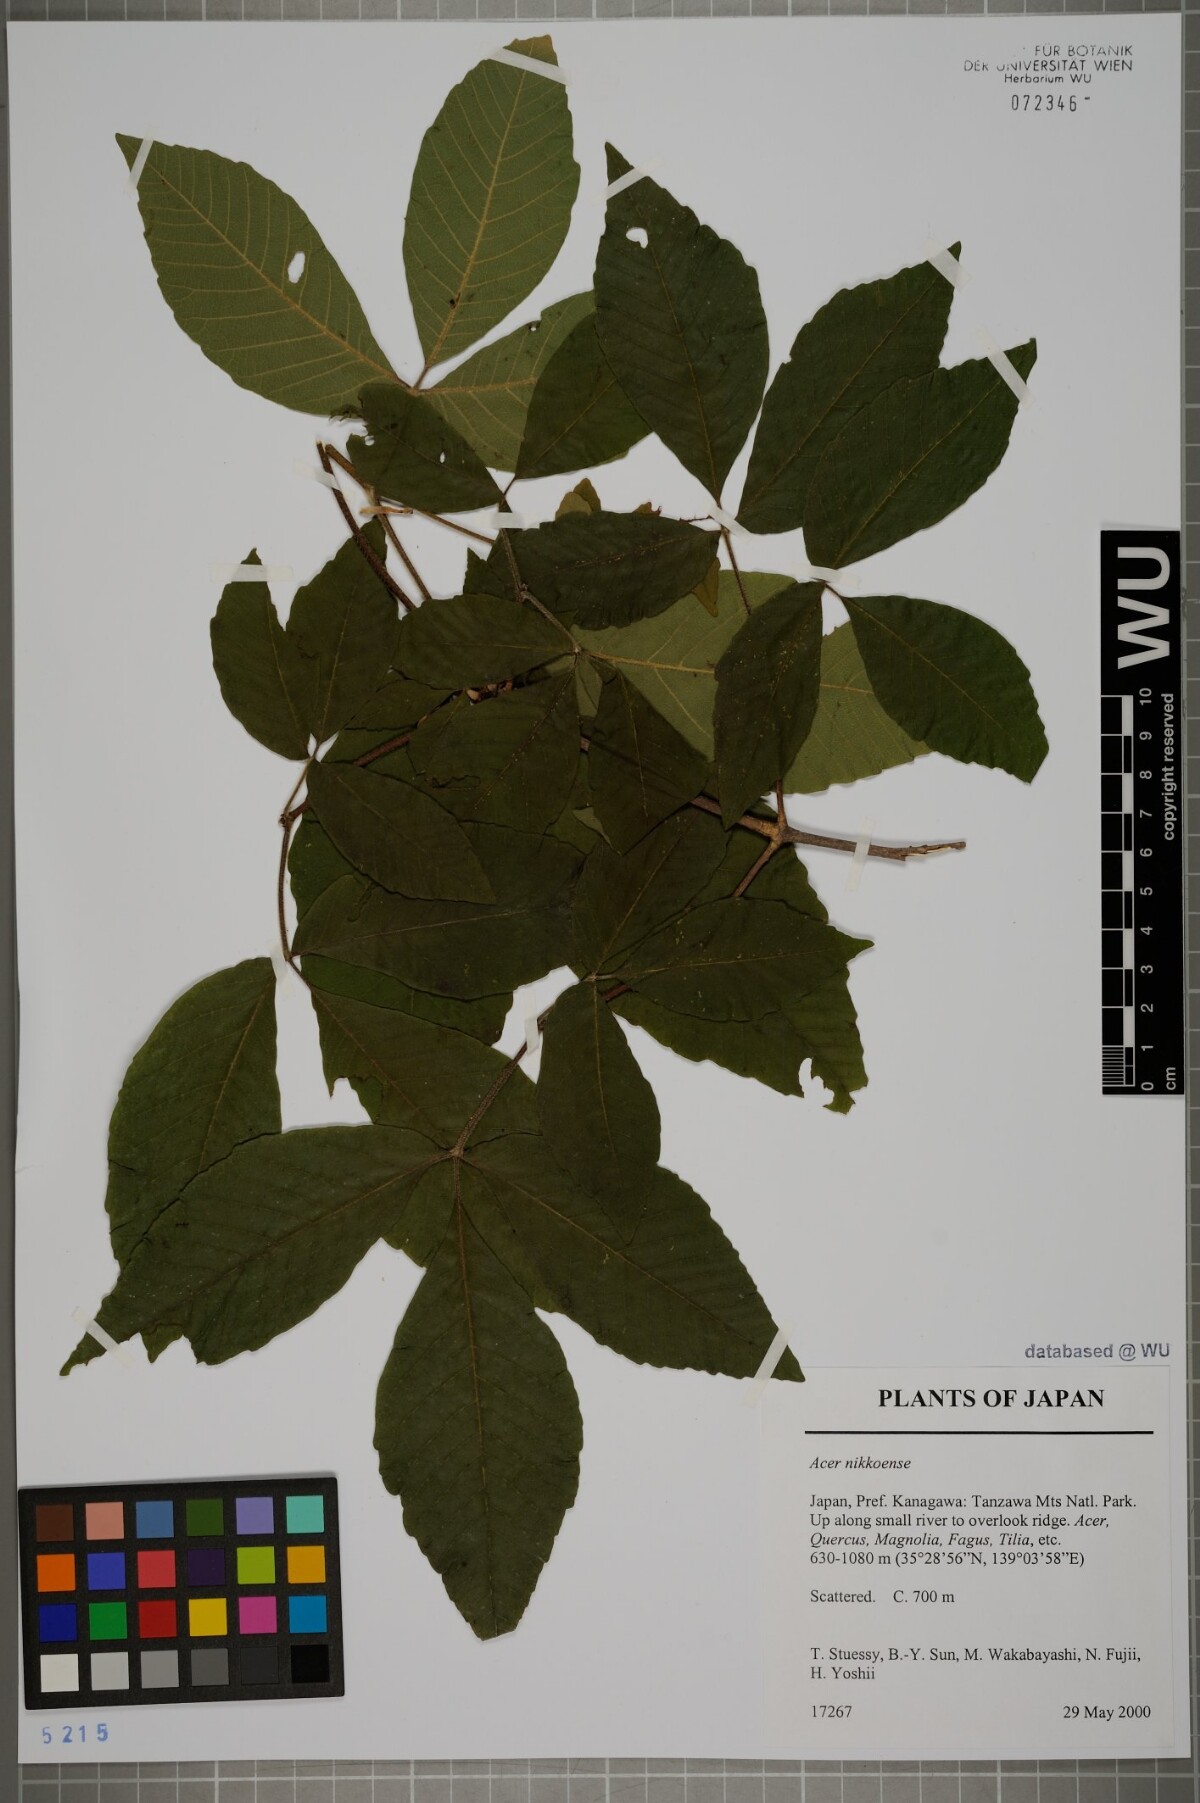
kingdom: Plantae
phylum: Tracheophyta
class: Magnoliopsida
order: Vitales
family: Vitaceae
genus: Parthenocissus
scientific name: Parthenocissus tricuspidata
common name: Boston ivy
